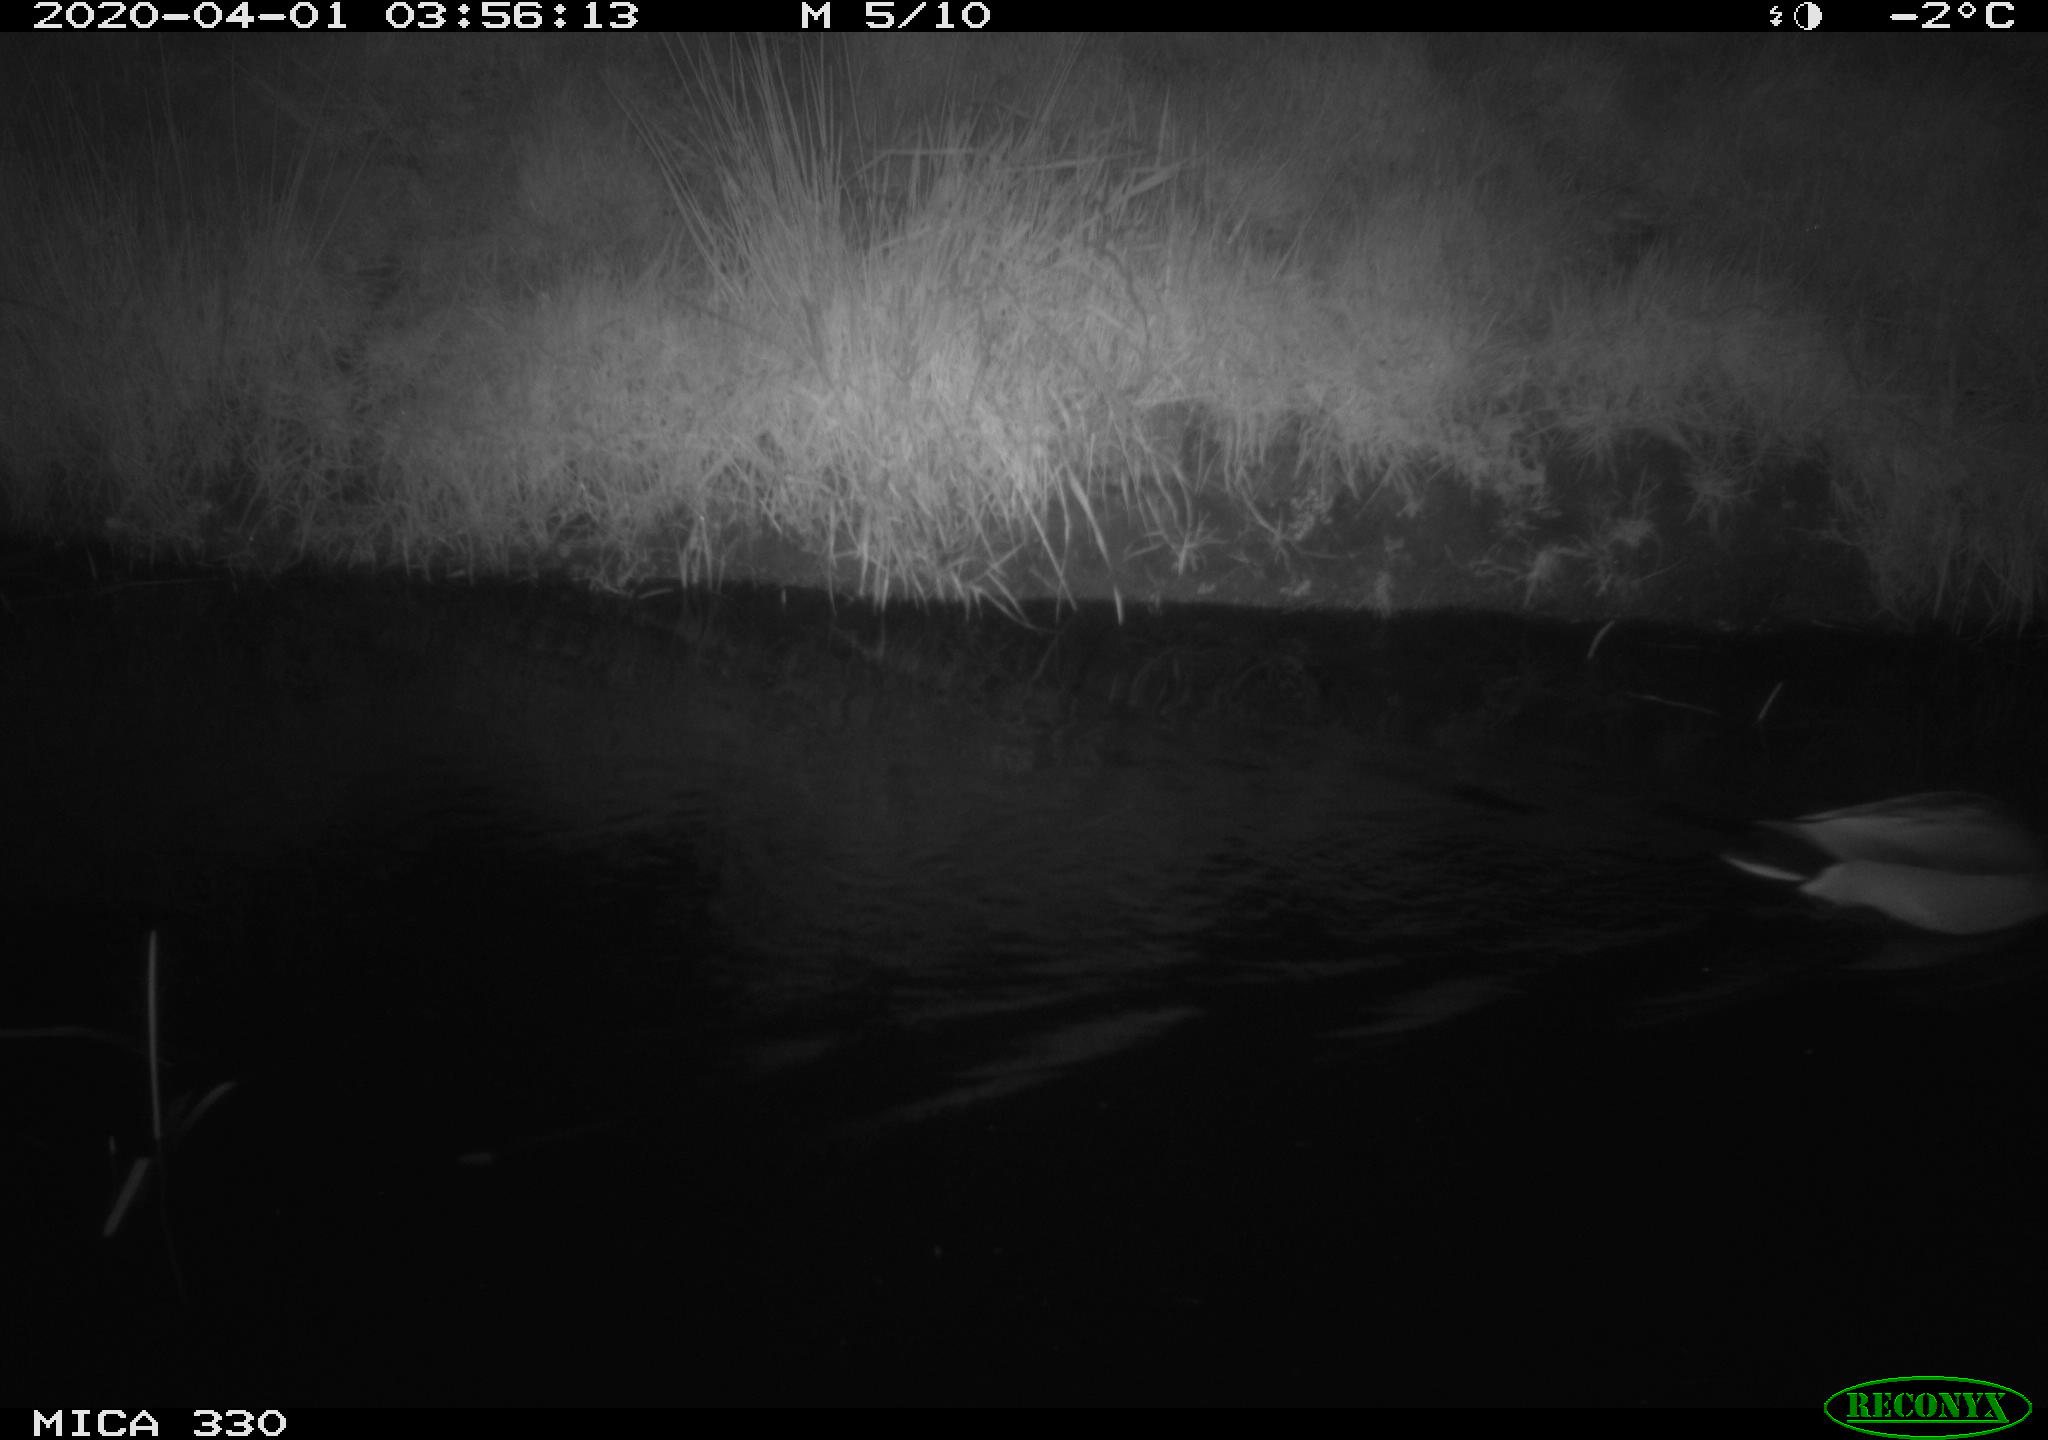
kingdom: Animalia
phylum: Chordata
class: Aves
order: Anseriformes
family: Anatidae
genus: Anas
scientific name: Anas platyrhynchos
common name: Mallard
